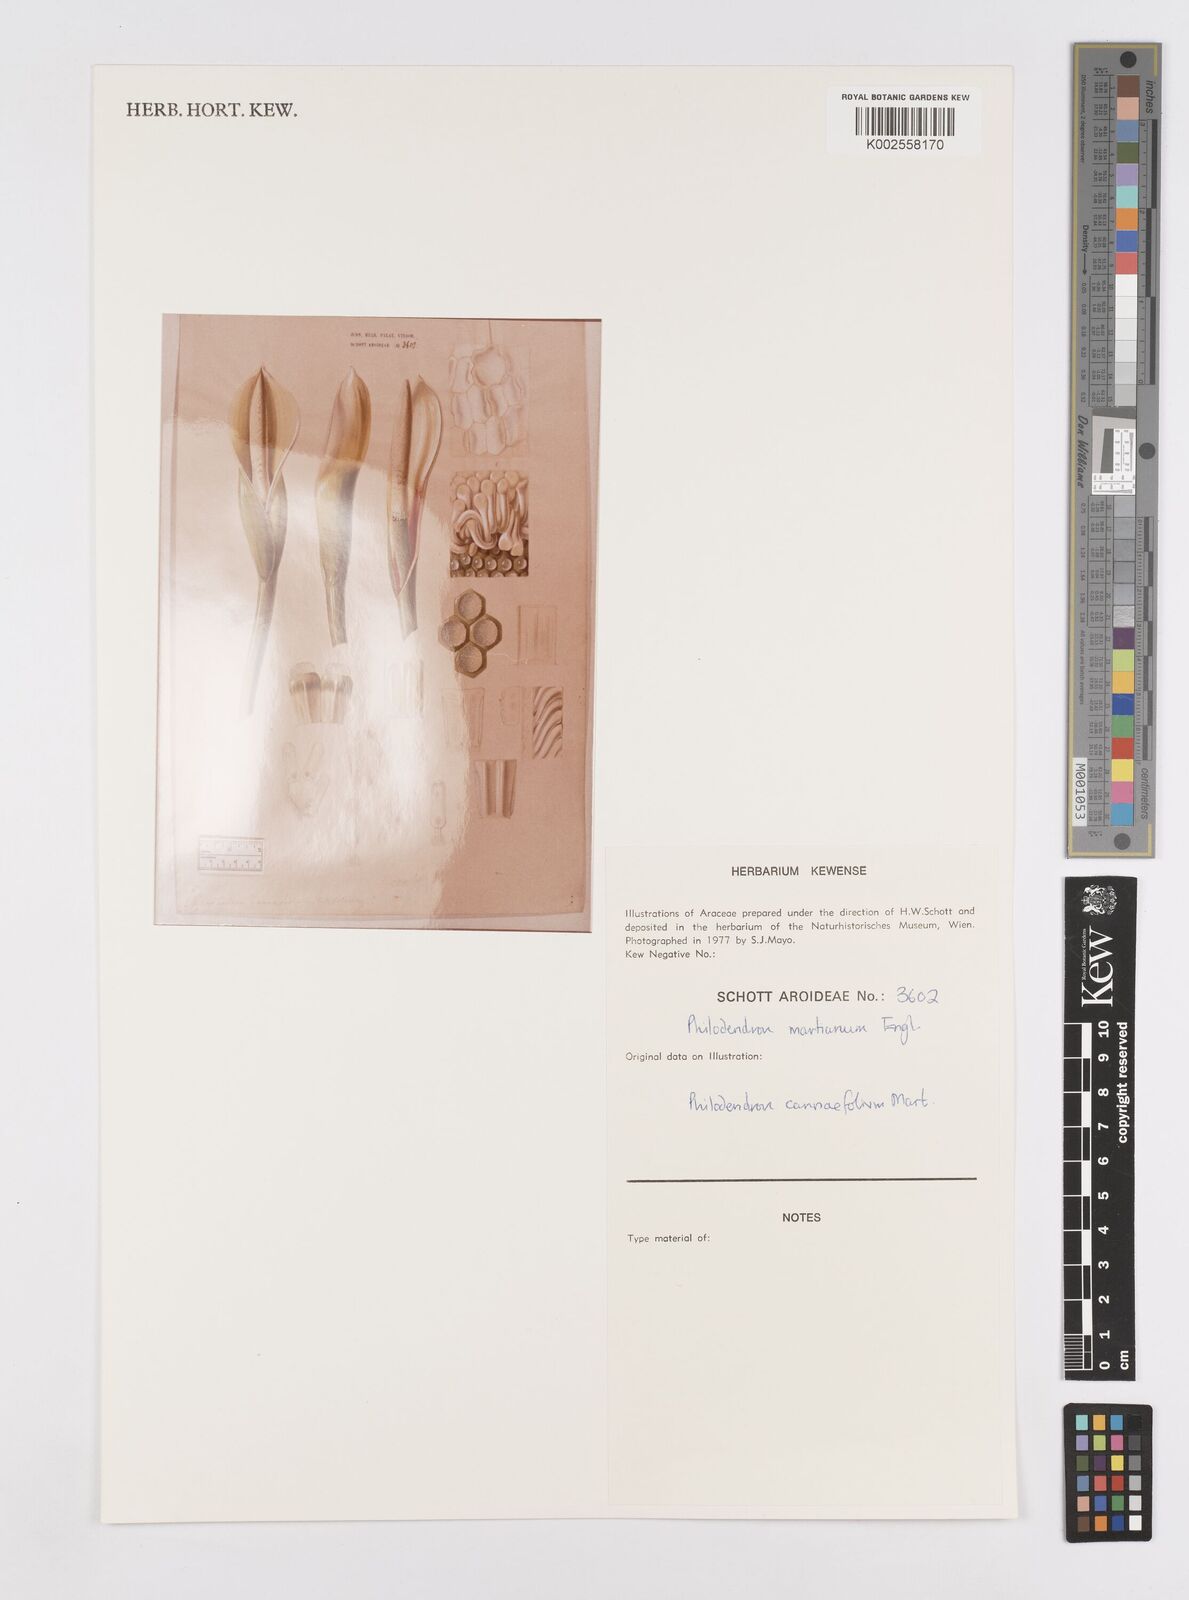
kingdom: Plantae
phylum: Tracheophyta
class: Liliopsida
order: Alismatales
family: Araceae
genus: Philodendron
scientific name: Philodendron martianum
